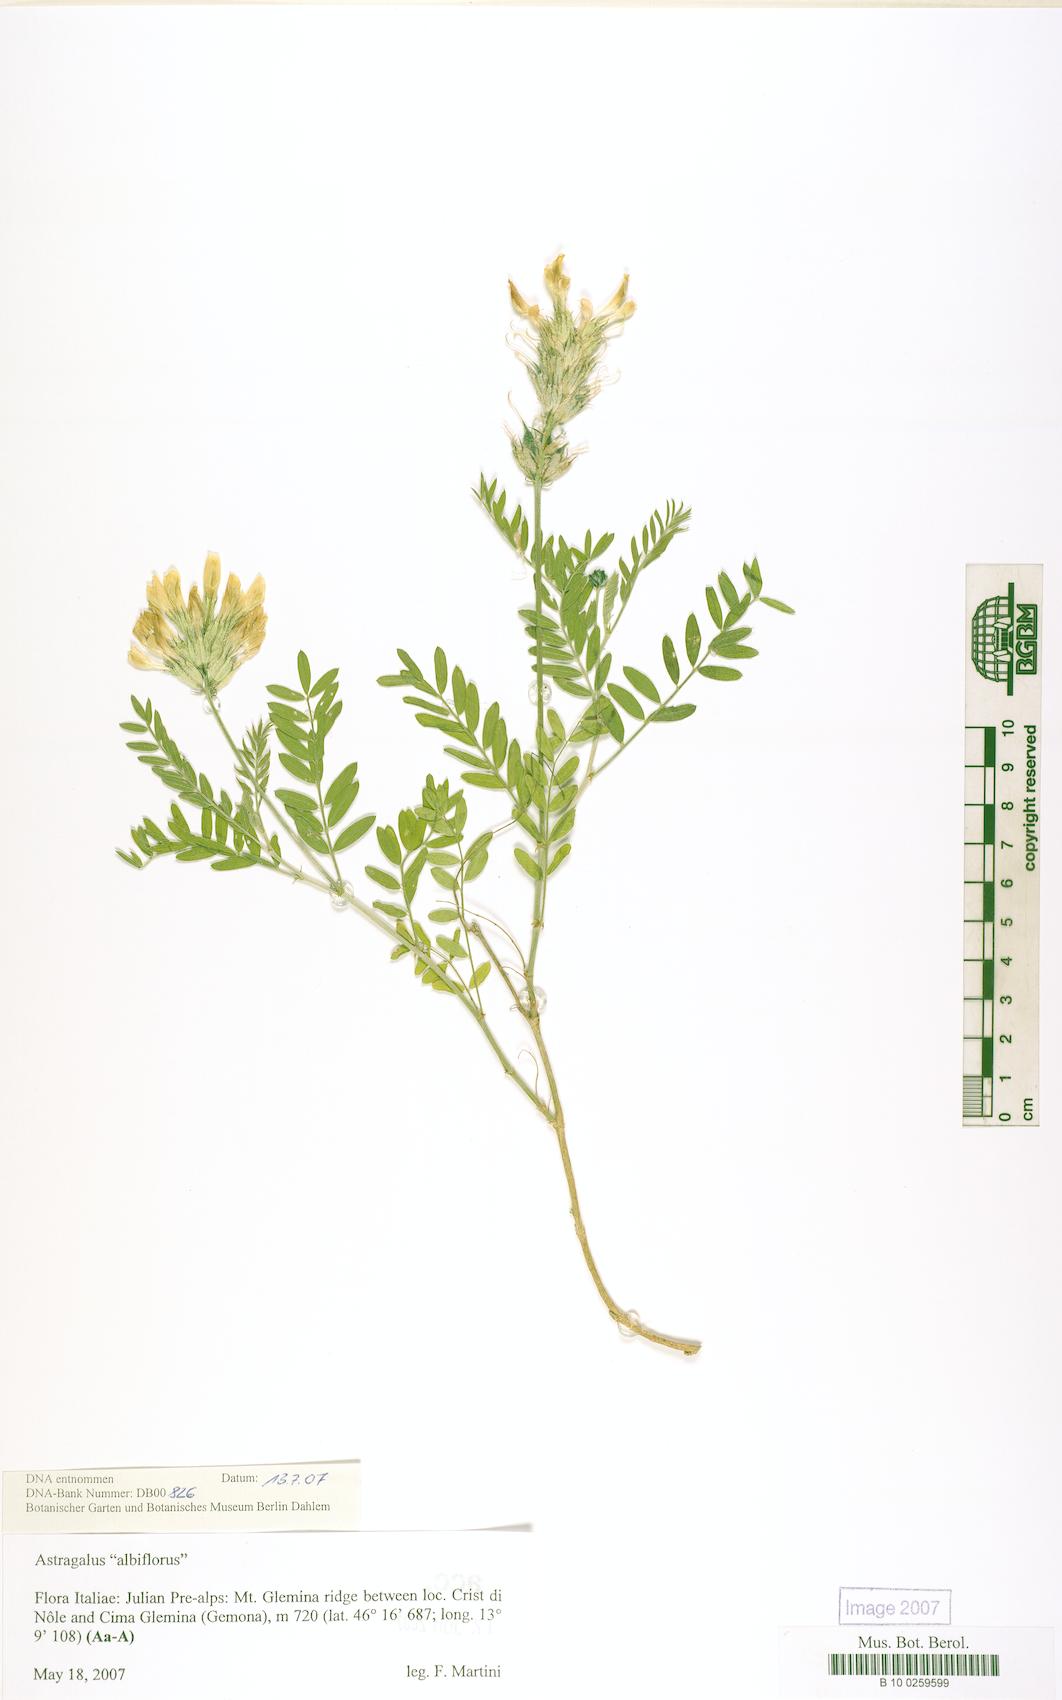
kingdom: Plantae
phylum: Tracheophyta
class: Magnoliopsida
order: Fabales
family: Fabaceae
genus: Oxytropis
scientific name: Oxytropis
